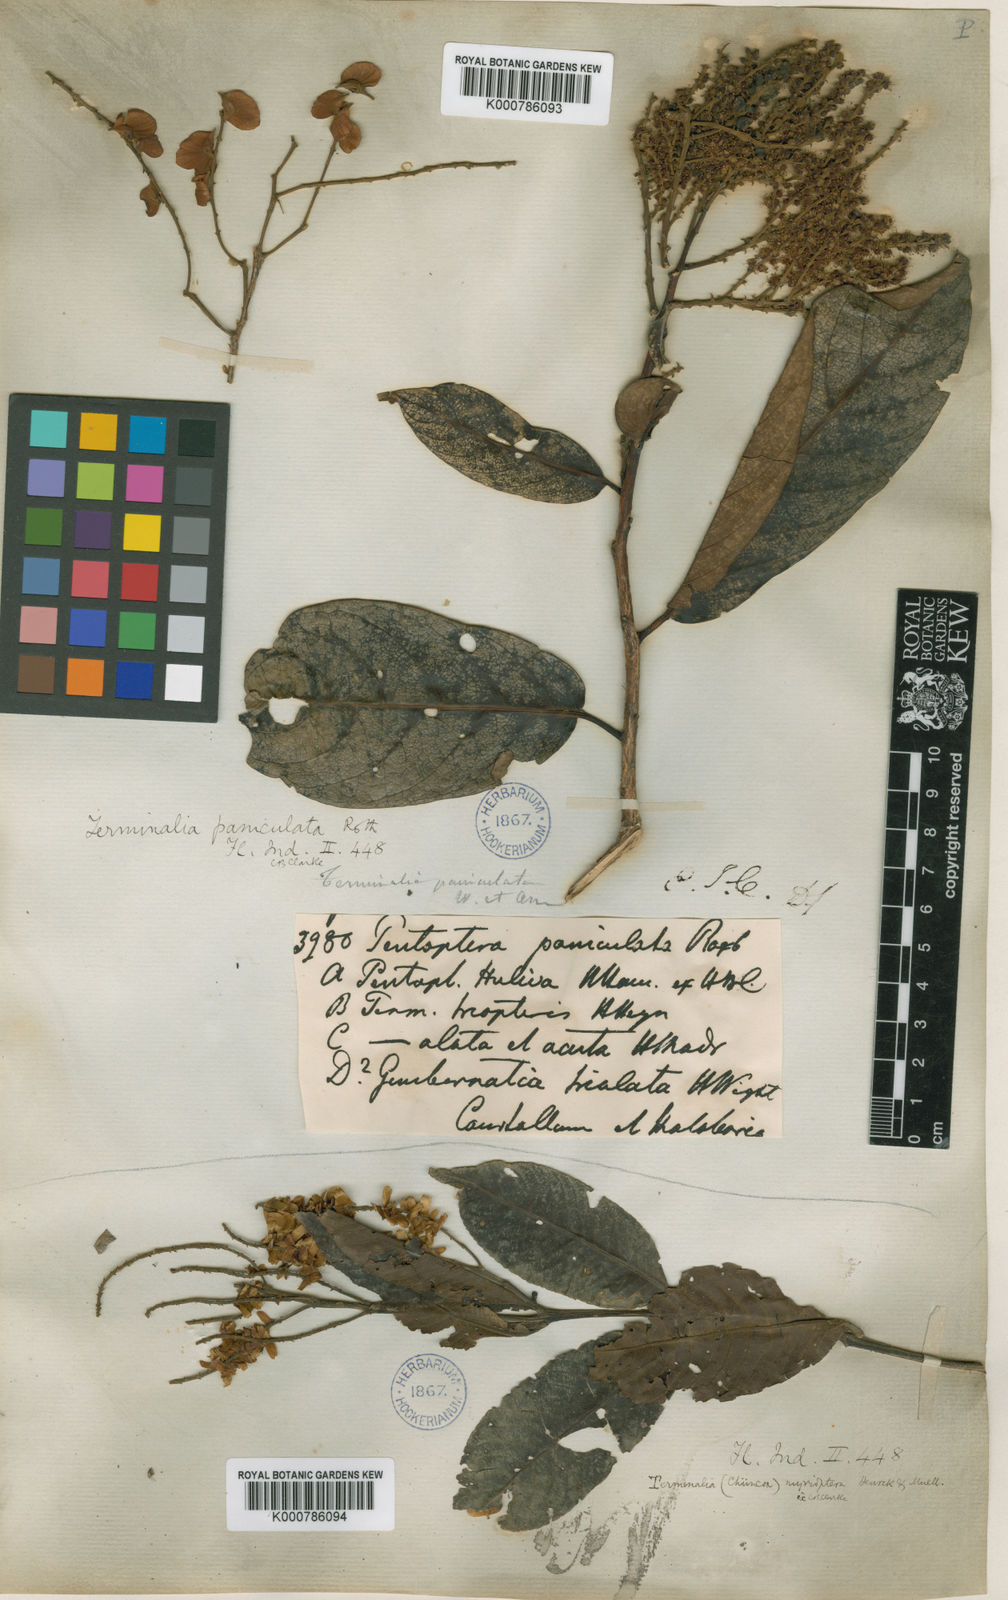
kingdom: Plantae
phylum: Tracheophyta
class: Magnoliopsida
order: Myrtales
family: Combretaceae
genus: Terminalia
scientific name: Terminalia
